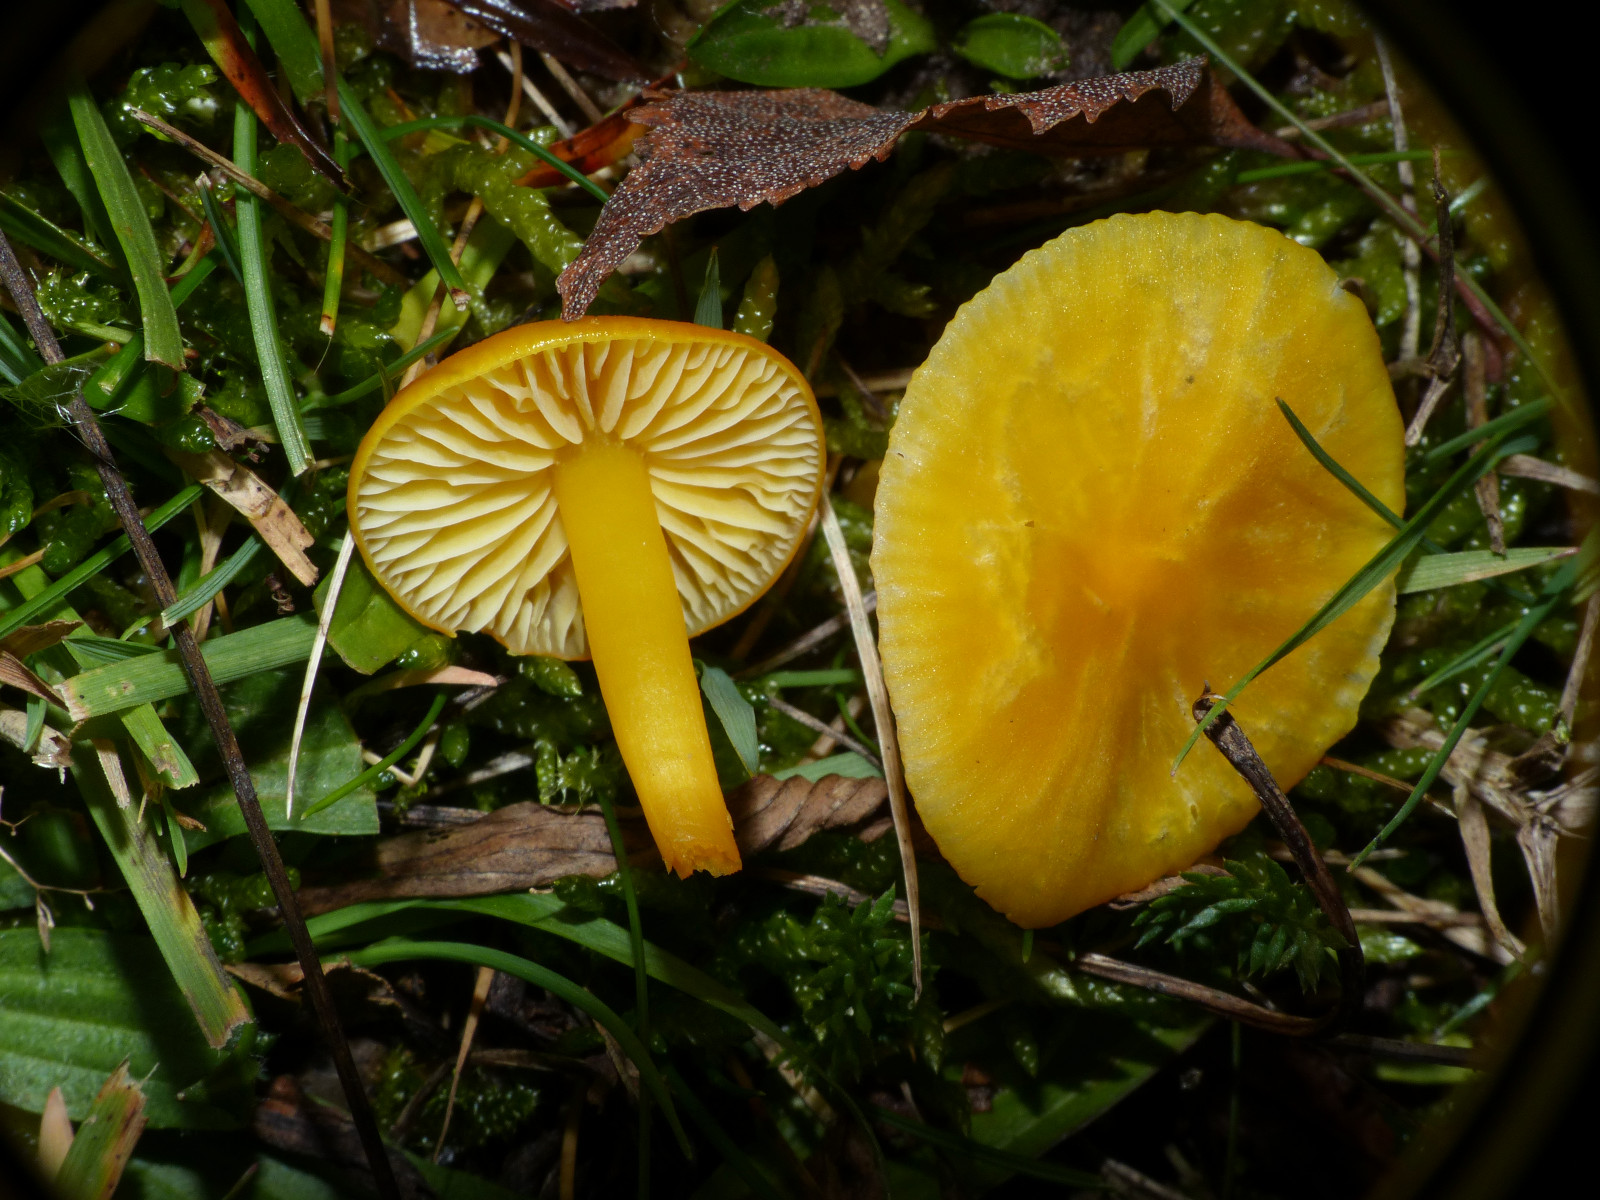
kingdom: Fungi
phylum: Basidiomycota
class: Agaricomycetes
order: Agaricales
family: Hygrophoraceae
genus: Hygrocybe
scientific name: Hygrocybe chlorophana
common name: gul vokshat
